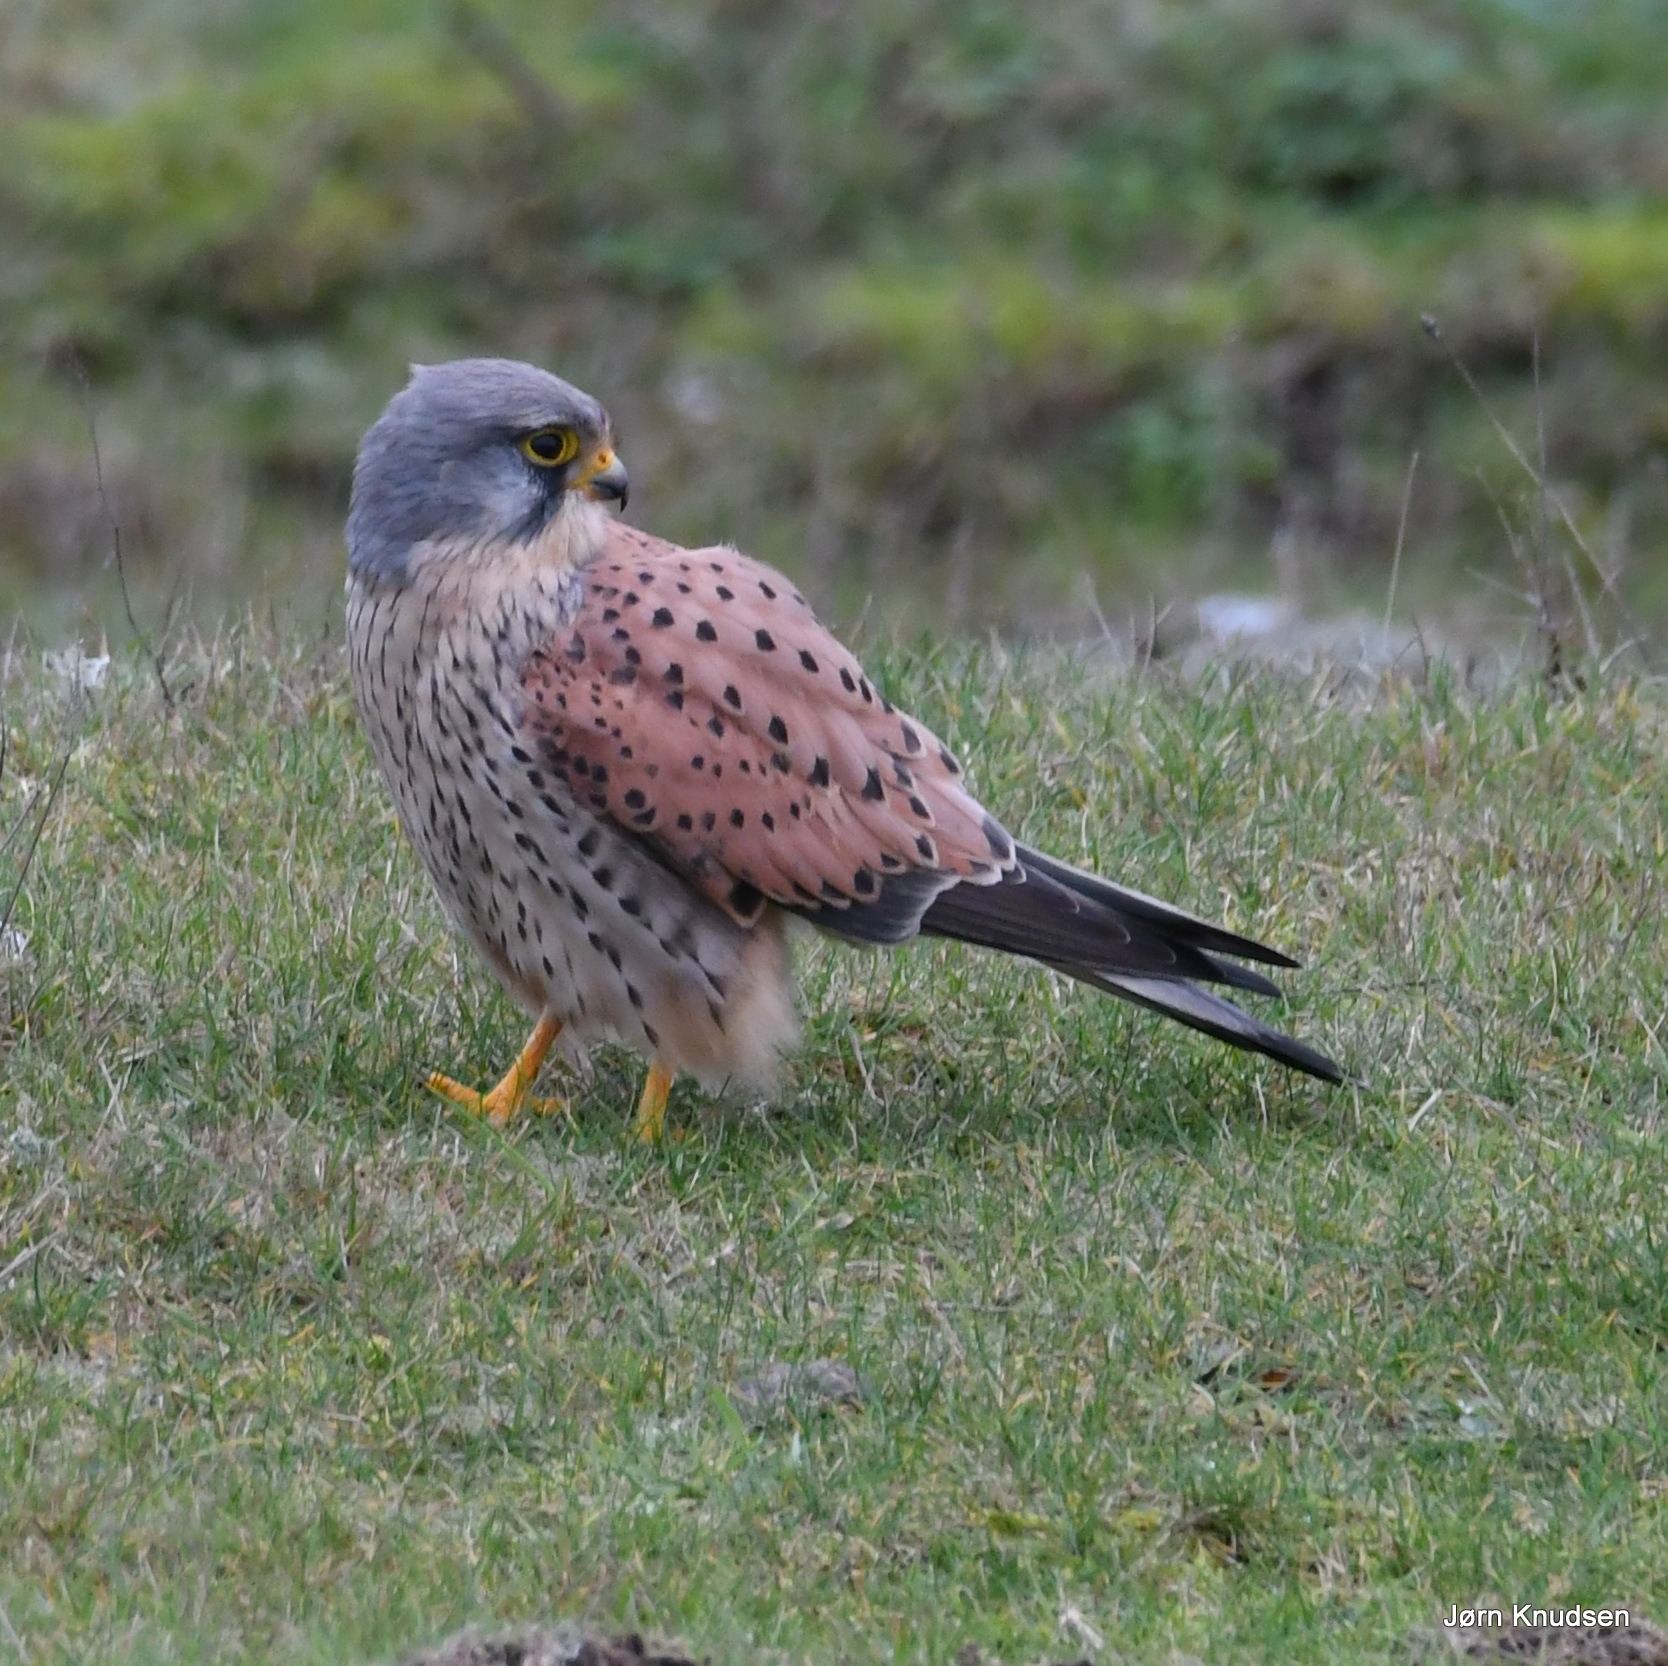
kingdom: Animalia
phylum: Chordata
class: Aves
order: Falconiformes
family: Falconidae
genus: Falco
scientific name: Falco tinnunculus
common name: Tårnfalk
